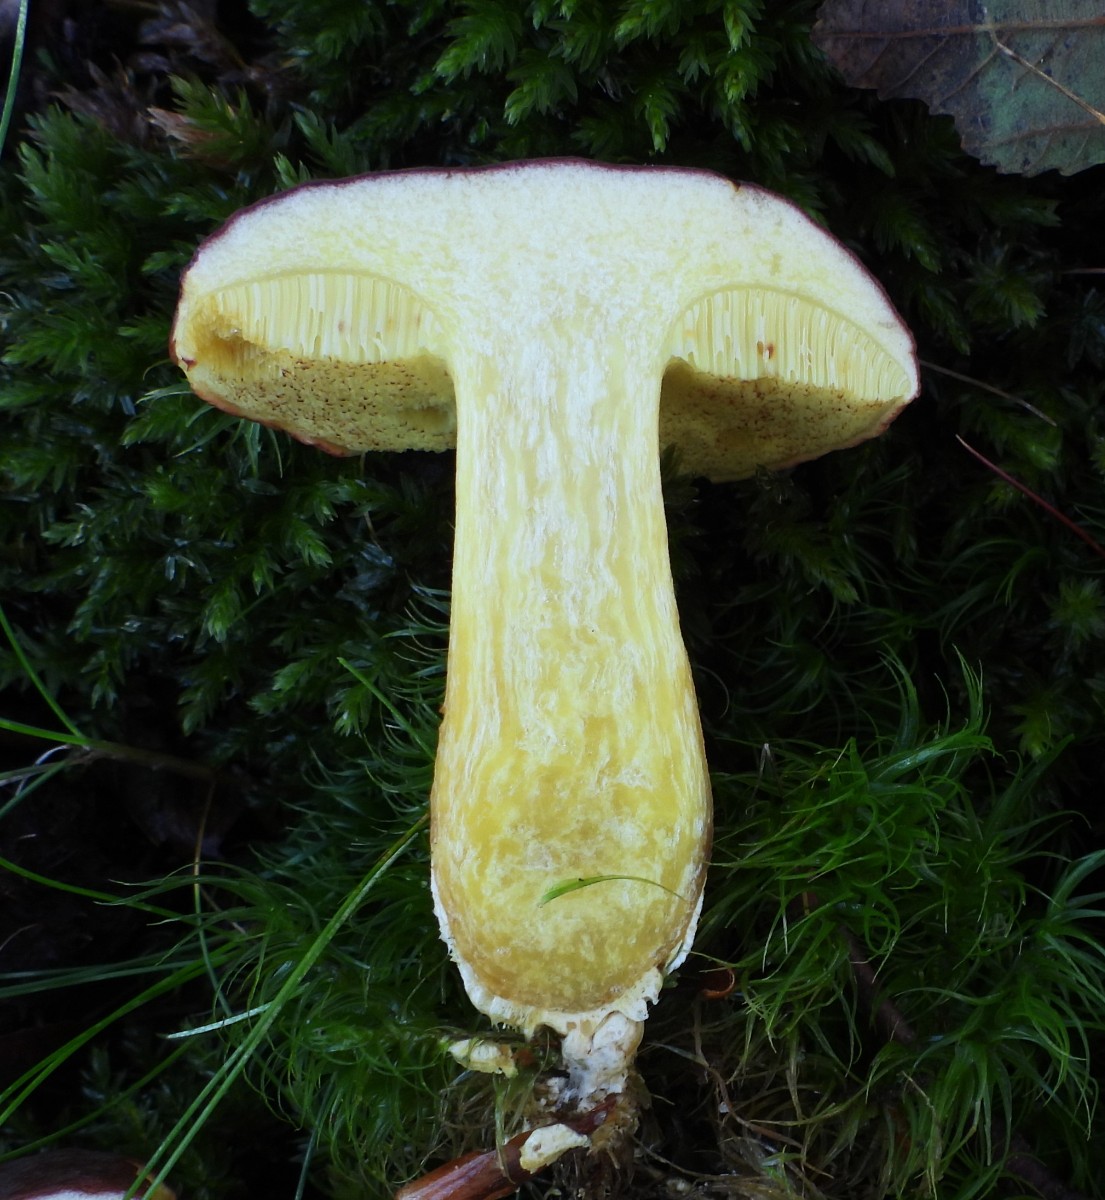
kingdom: Fungi
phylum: Basidiomycota
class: Agaricomycetes
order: Boletales
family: Boletaceae
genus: Xerocomellus
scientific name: Xerocomellus pruinatus
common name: dugget rørhat
